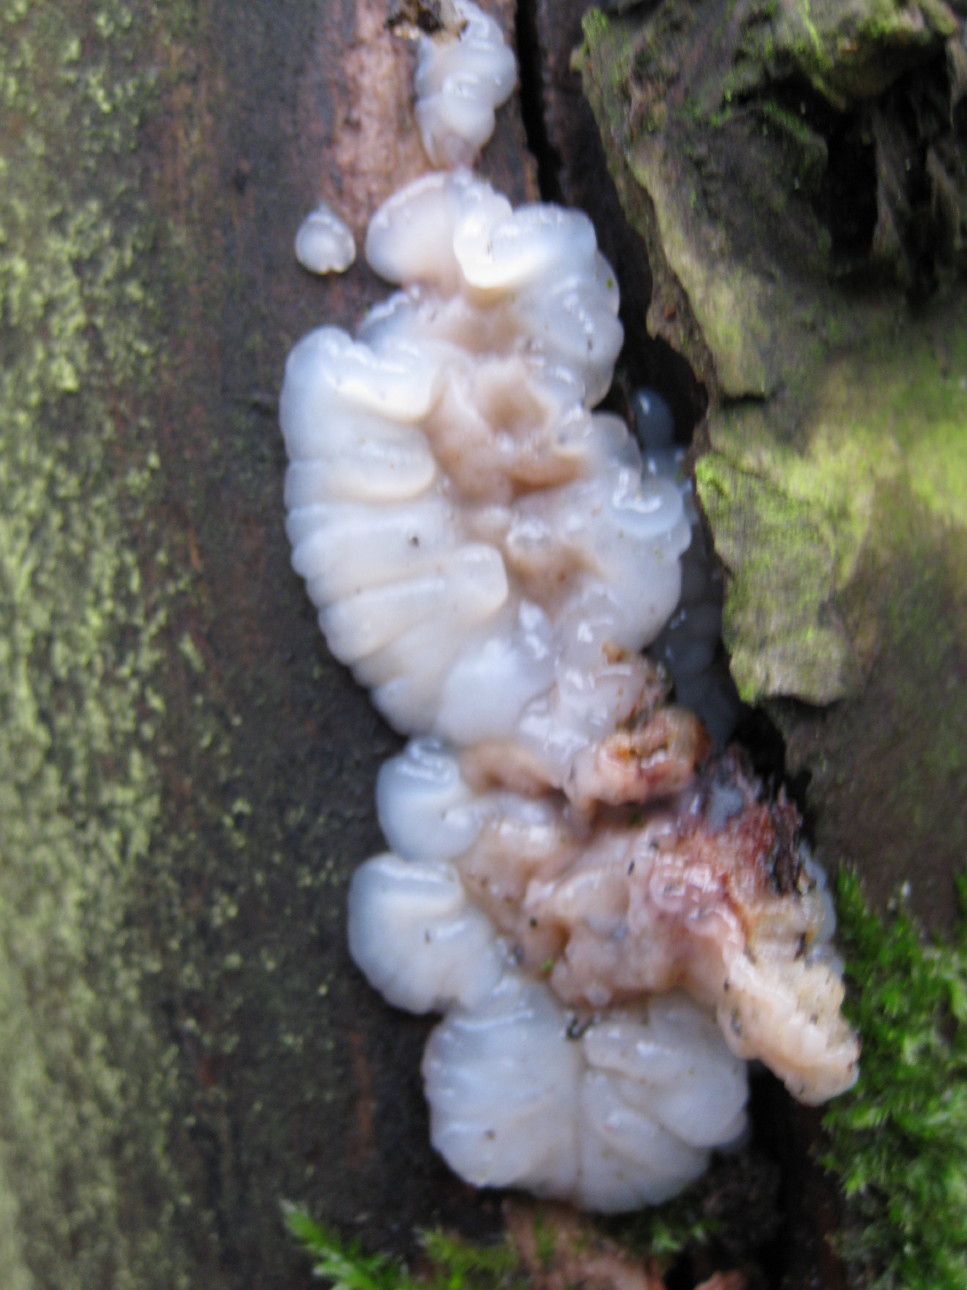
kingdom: Fungi
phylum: Basidiomycota
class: Agaricomycetes
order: Auriculariales
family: Auriculariaceae
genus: Exidia
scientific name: Exidia thuretiana
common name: hvidlig bævretop
